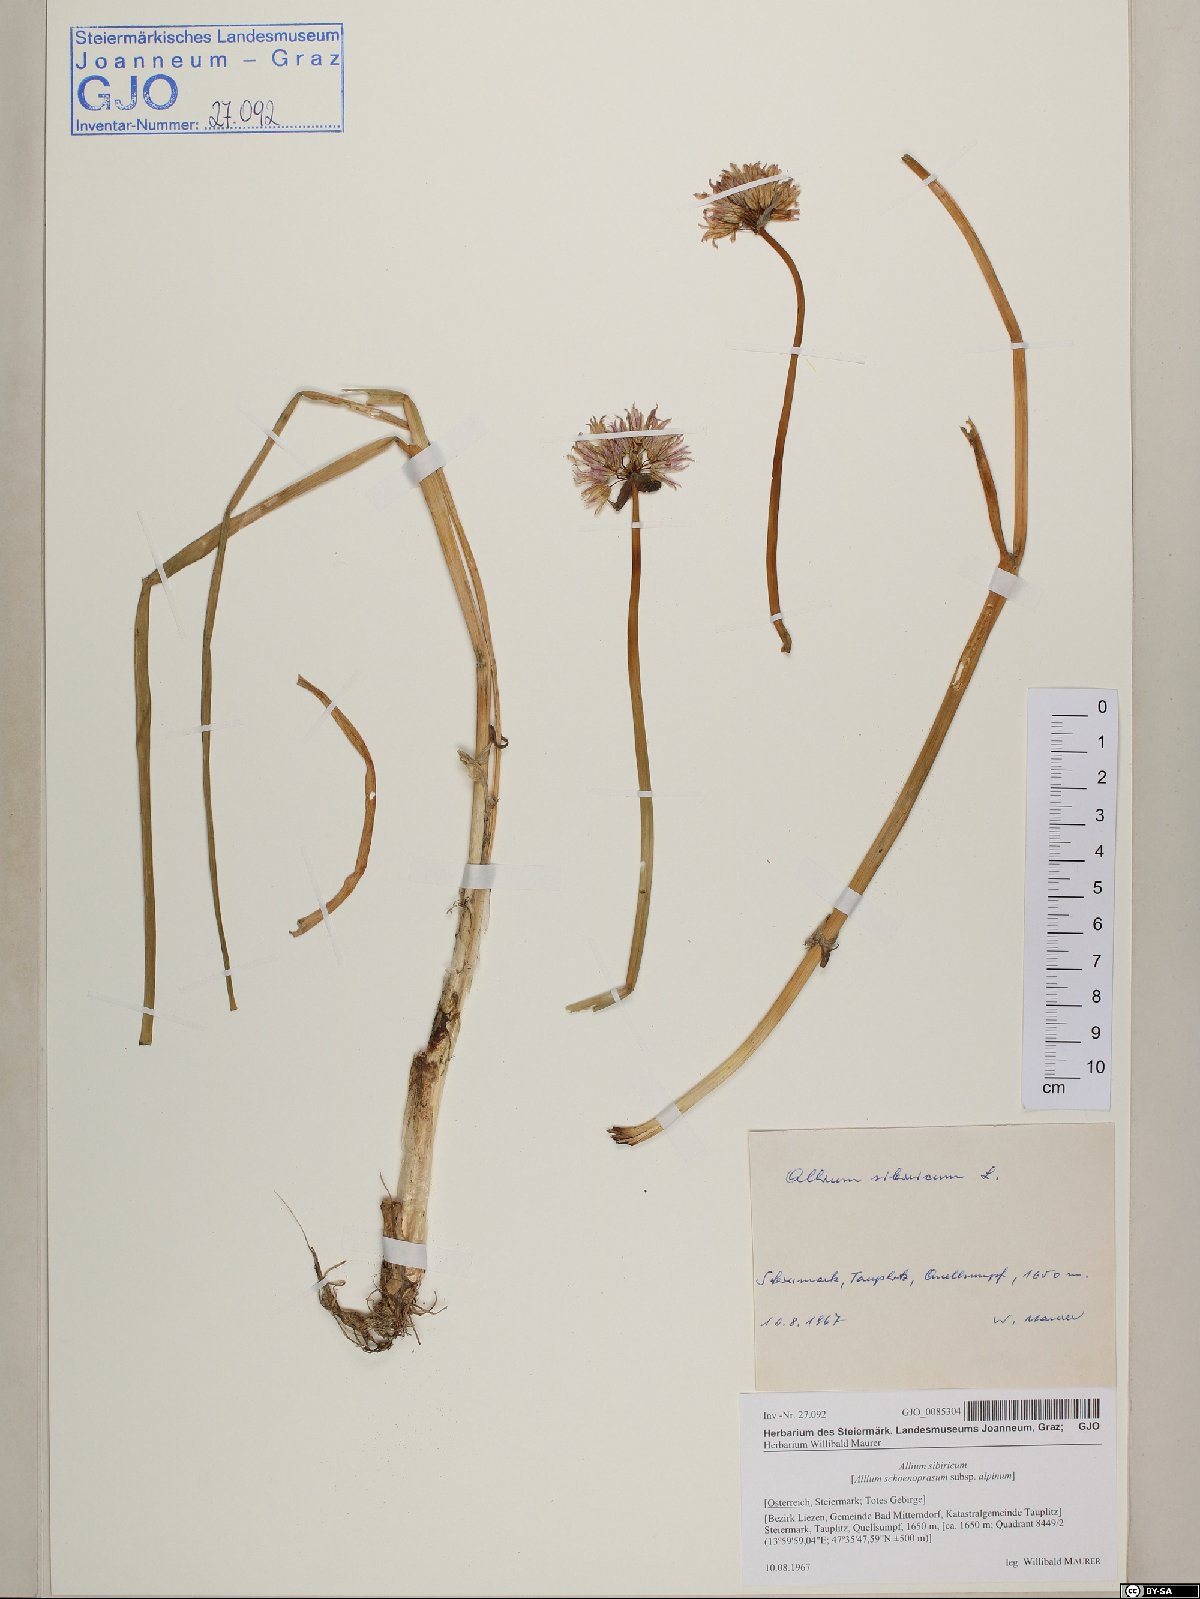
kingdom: Plantae
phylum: Tracheophyta
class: Liliopsida
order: Asparagales
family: Amaryllidaceae
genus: Allium
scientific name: Allium schoenoprasum
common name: Chives
